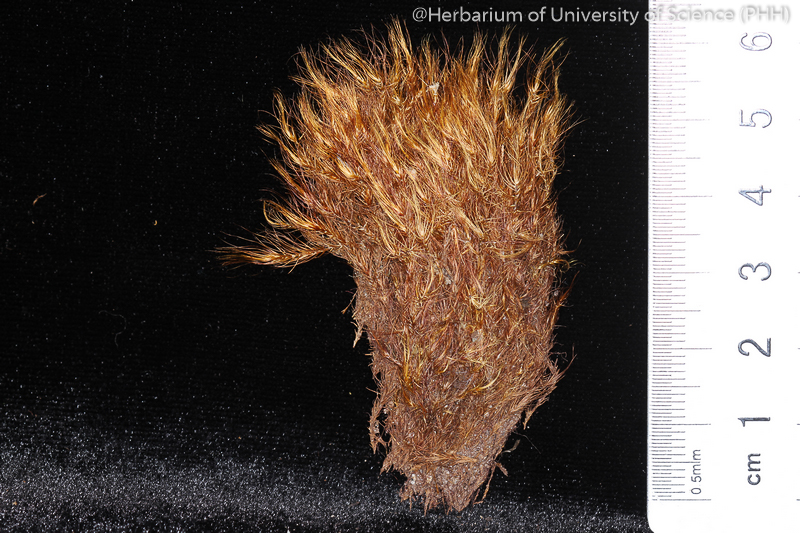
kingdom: Plantae
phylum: Bryophyta
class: Bryopsida
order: Dicranales
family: Dicranaceae
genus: Dicranoloma
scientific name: Dicranoloma
